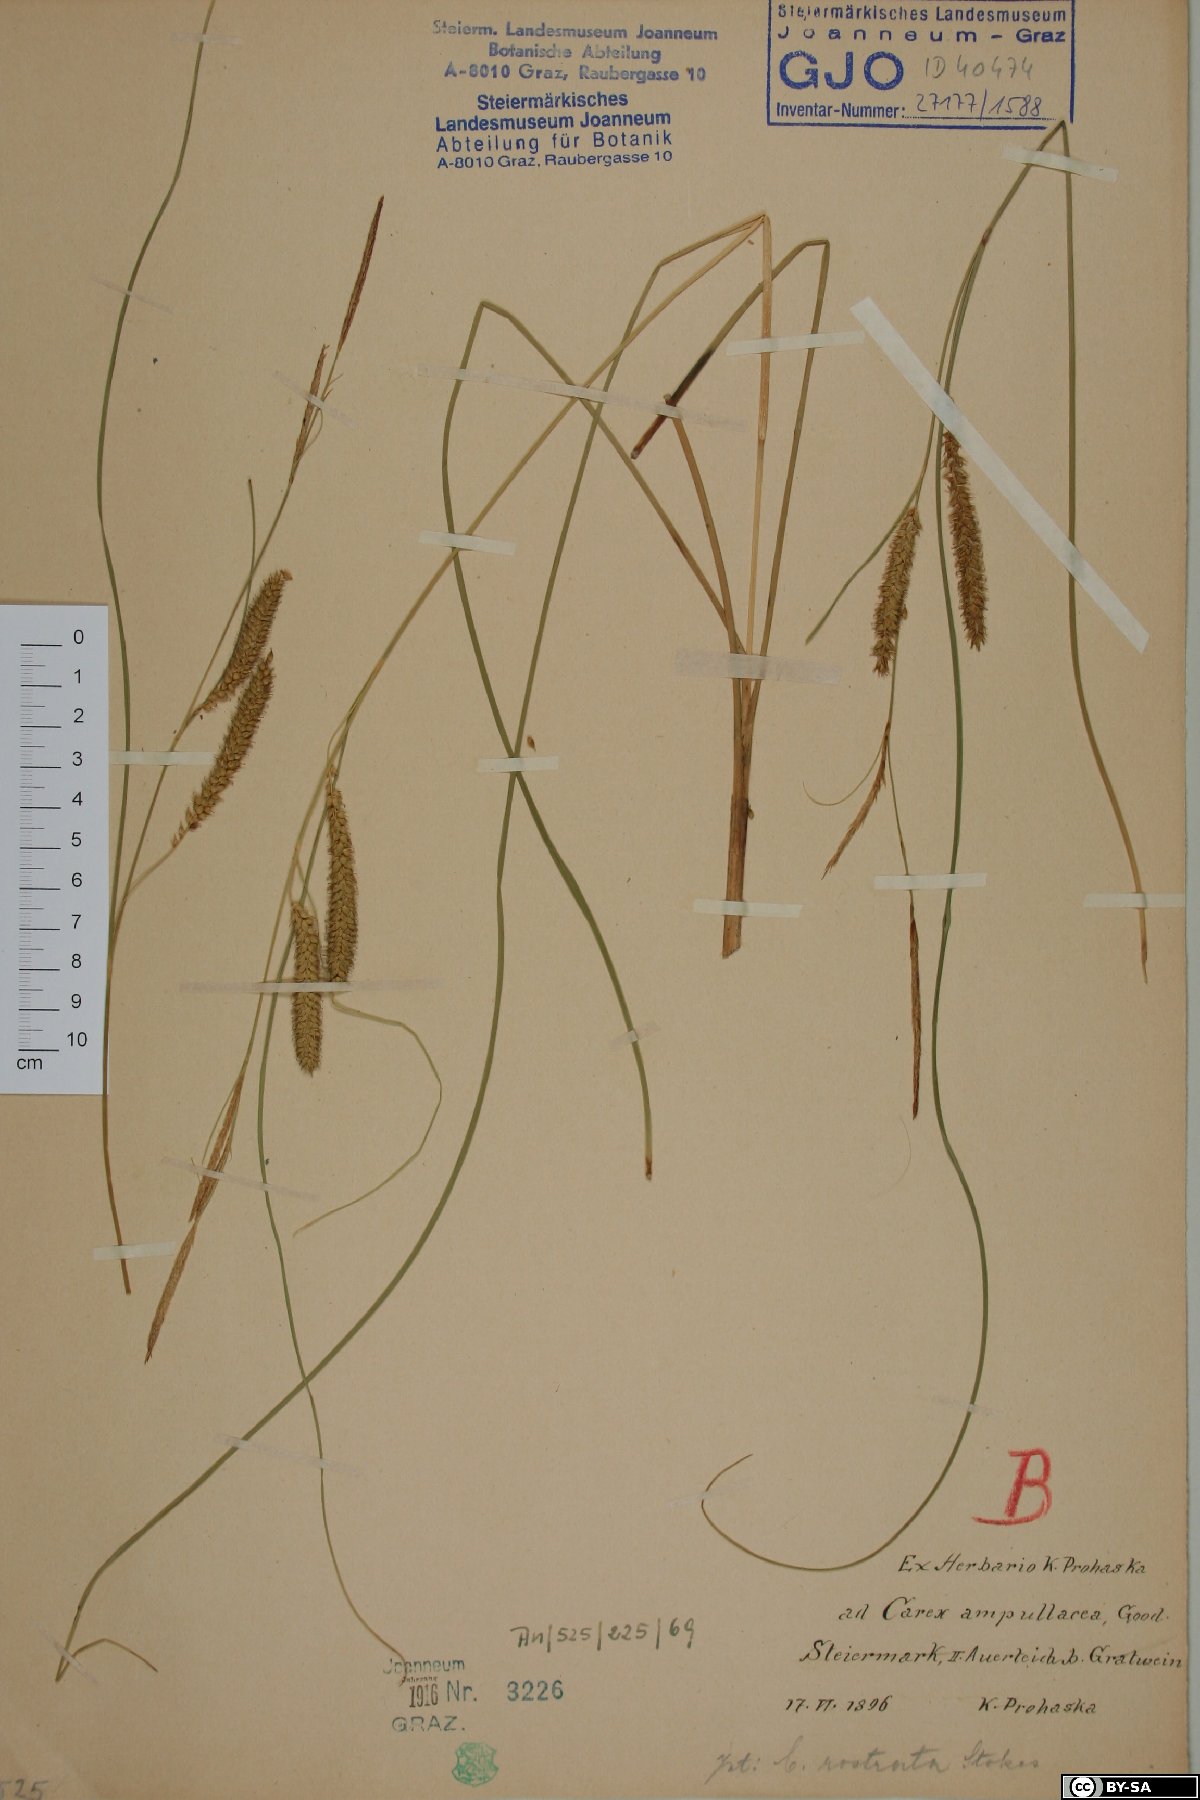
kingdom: Plantae
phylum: Tracheophyta
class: Liliopsida
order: Poales
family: Cyperaceae
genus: Carex
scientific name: Carex rostrata
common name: Bottle sedge
